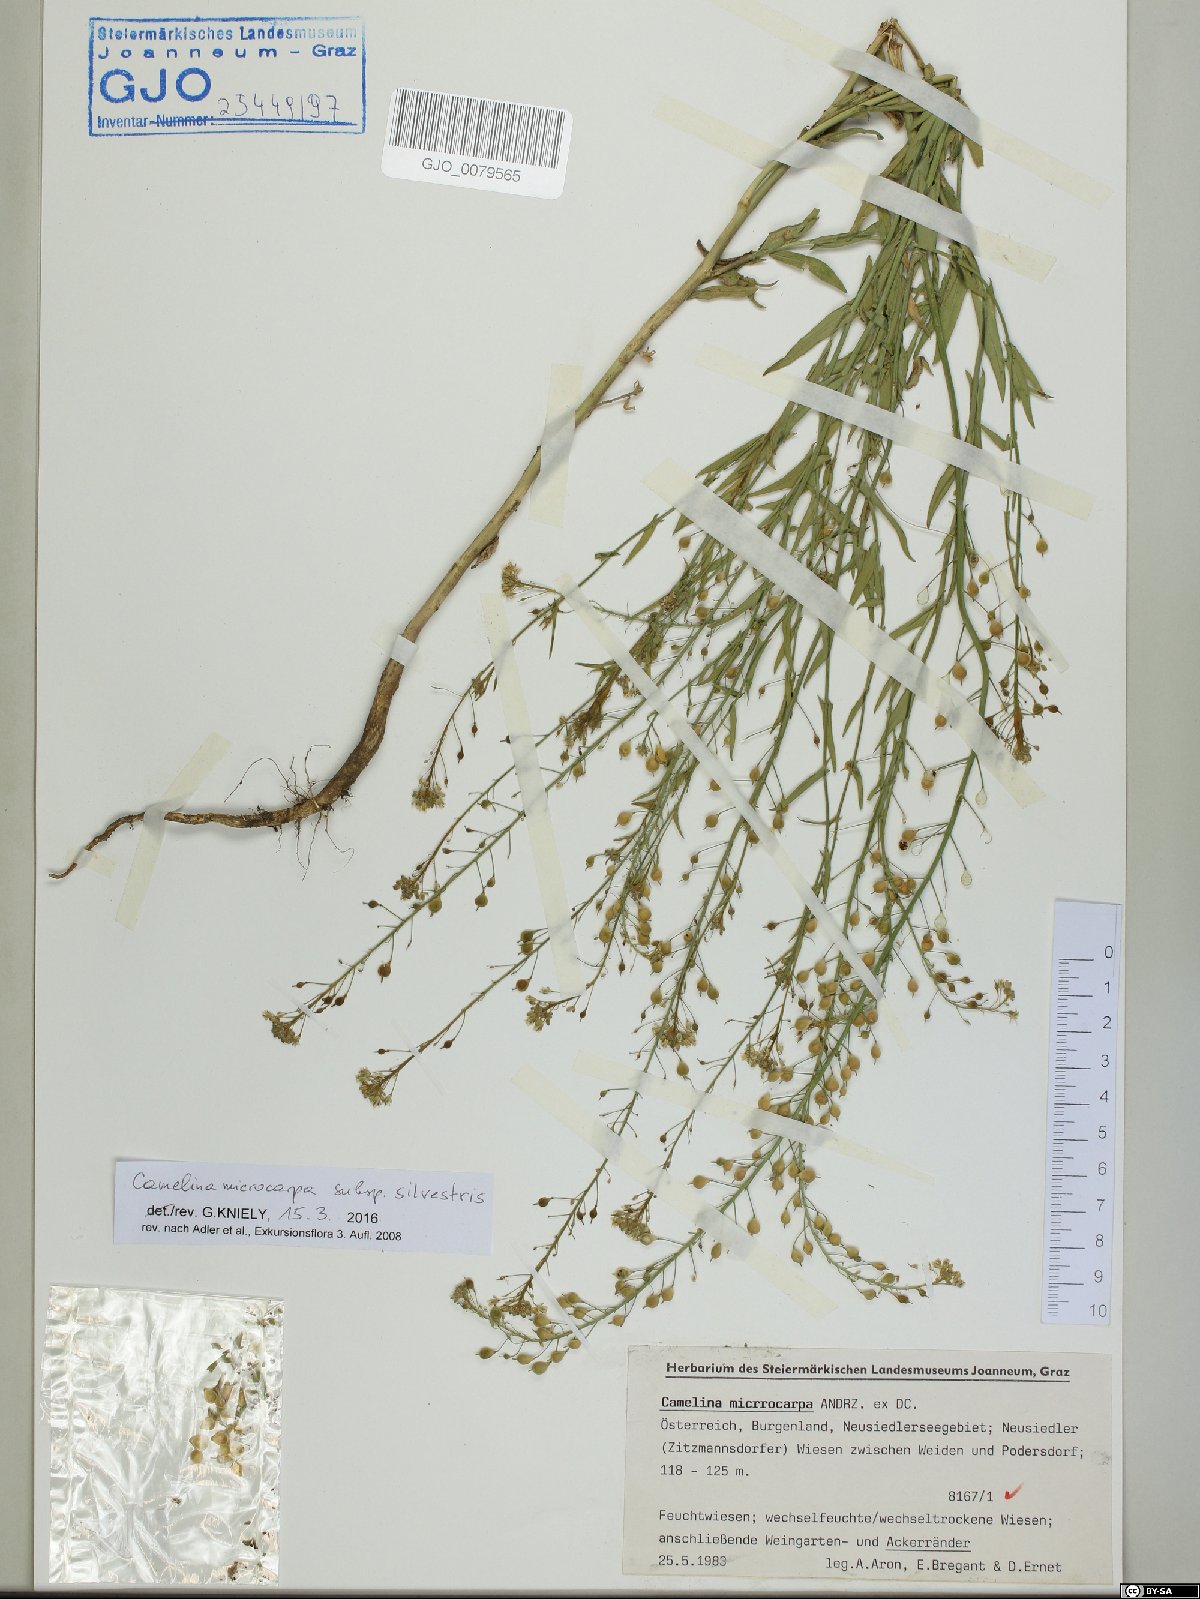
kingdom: Plantae
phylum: Tracheophyta
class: Magnoliopsida
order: Brassicales
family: Brassicaceae
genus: Camelina
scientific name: Camelina microcarpa
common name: Lesser gold-of-pleasure
